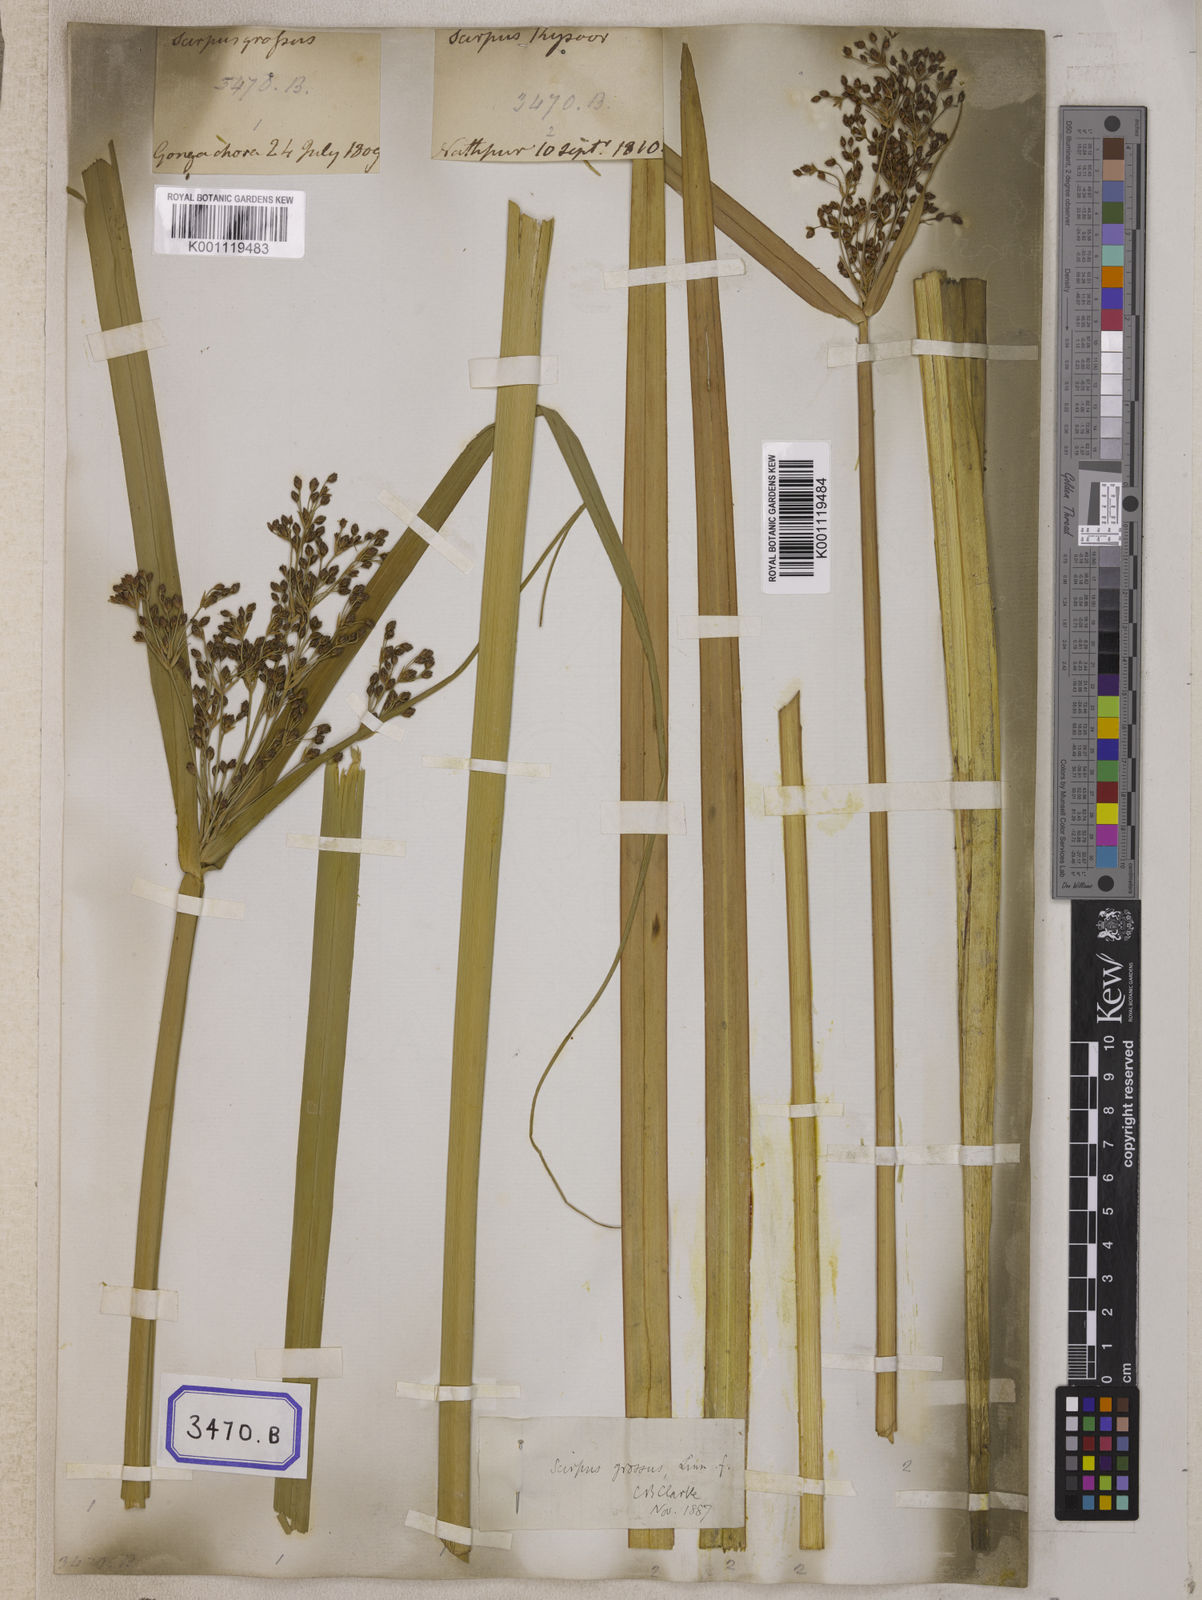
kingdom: Plantae
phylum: Tracheophyta
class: Liliopsida
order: Poales
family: Cyperaceae
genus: Isolepis
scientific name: Isolepis
